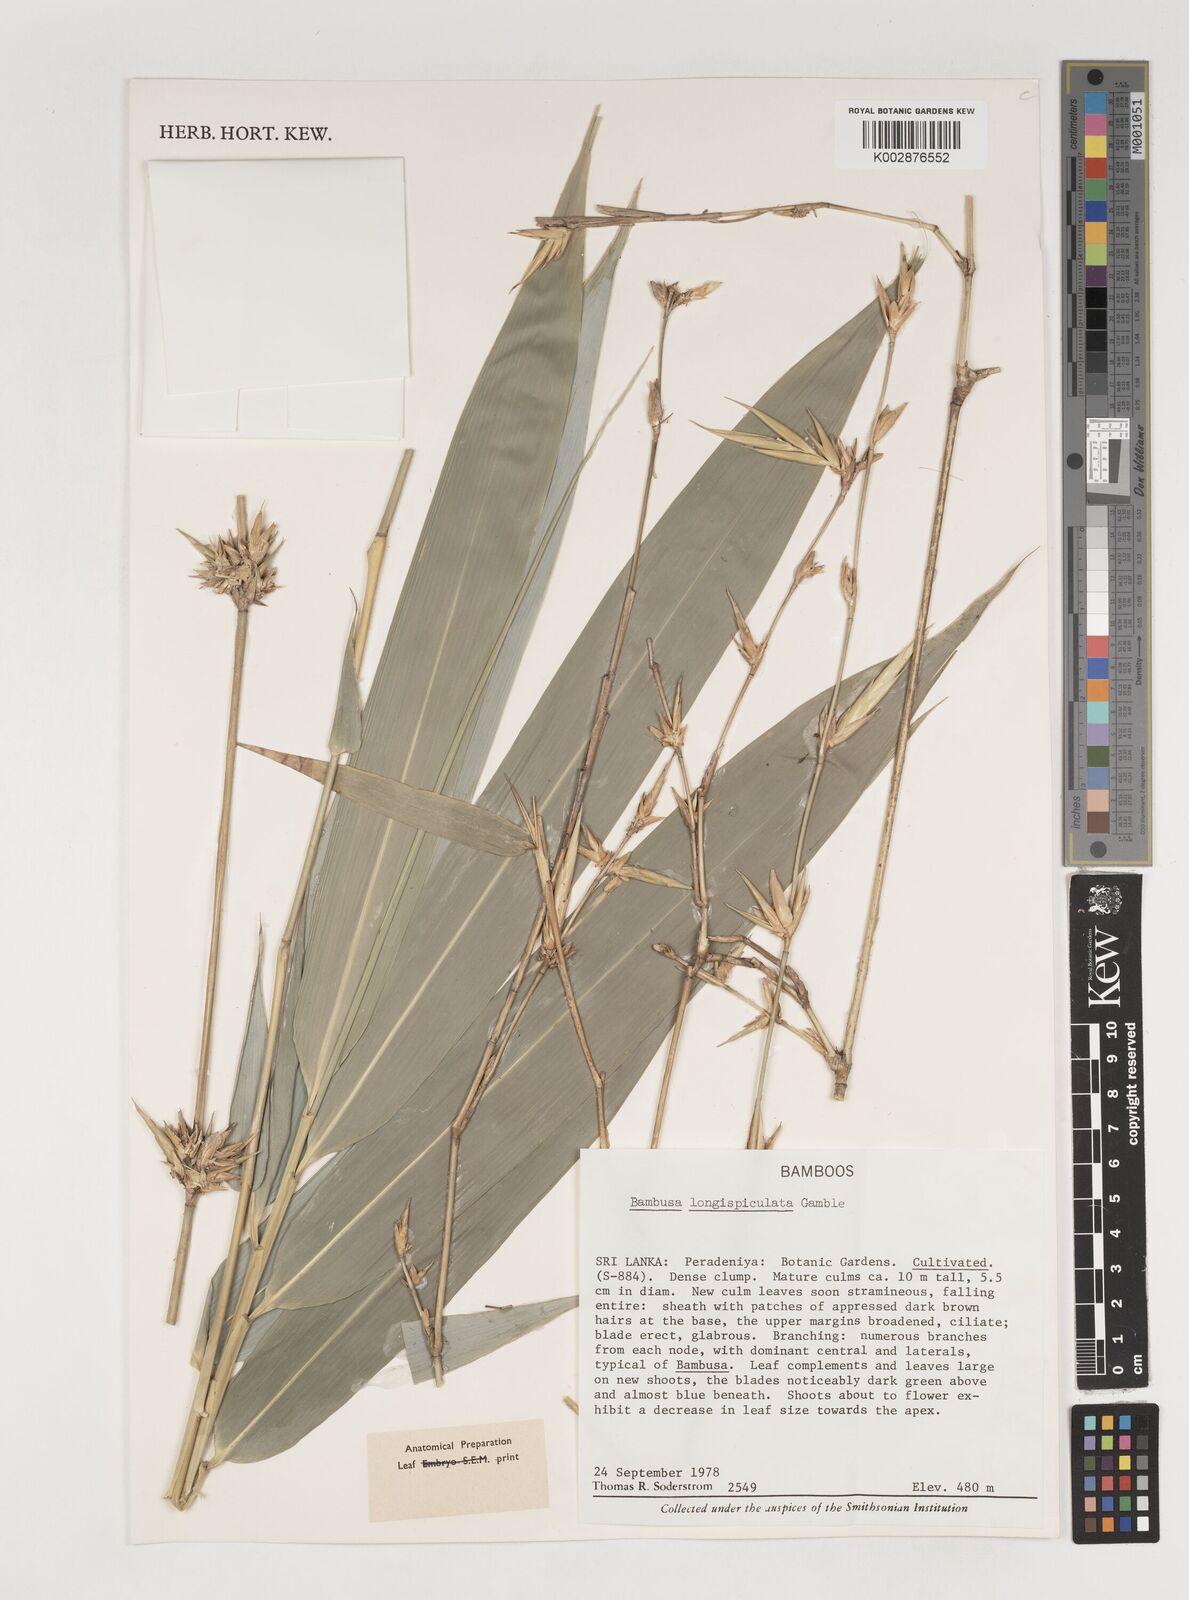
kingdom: Plantae
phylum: Tracheophyta
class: Liliopsida
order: Poales
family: Poaceae
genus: Bambusa
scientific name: Bambusa longispiculata
